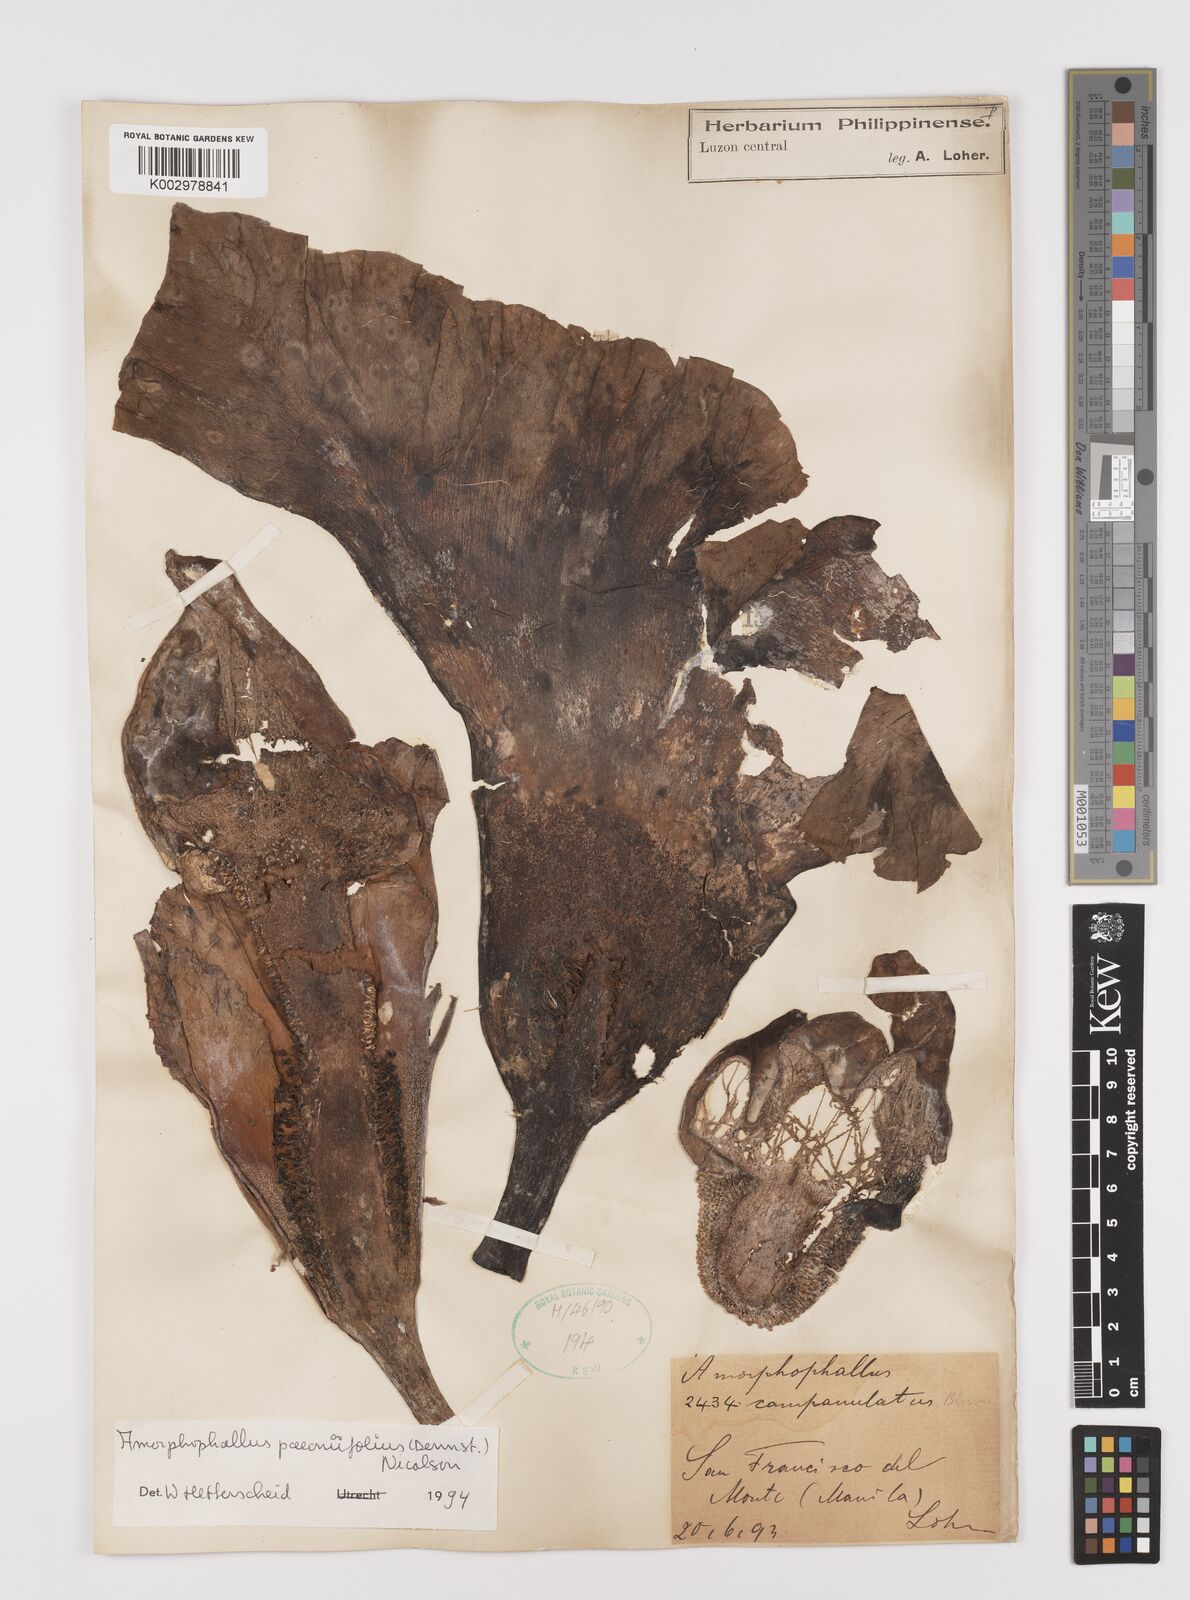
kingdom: Plantae
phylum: Tracheophyta
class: Liliopsida
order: Alismatales
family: Araceae
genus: Amorphophallus
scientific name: Amorphophallus paeoniifolius
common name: Telinga-potato
